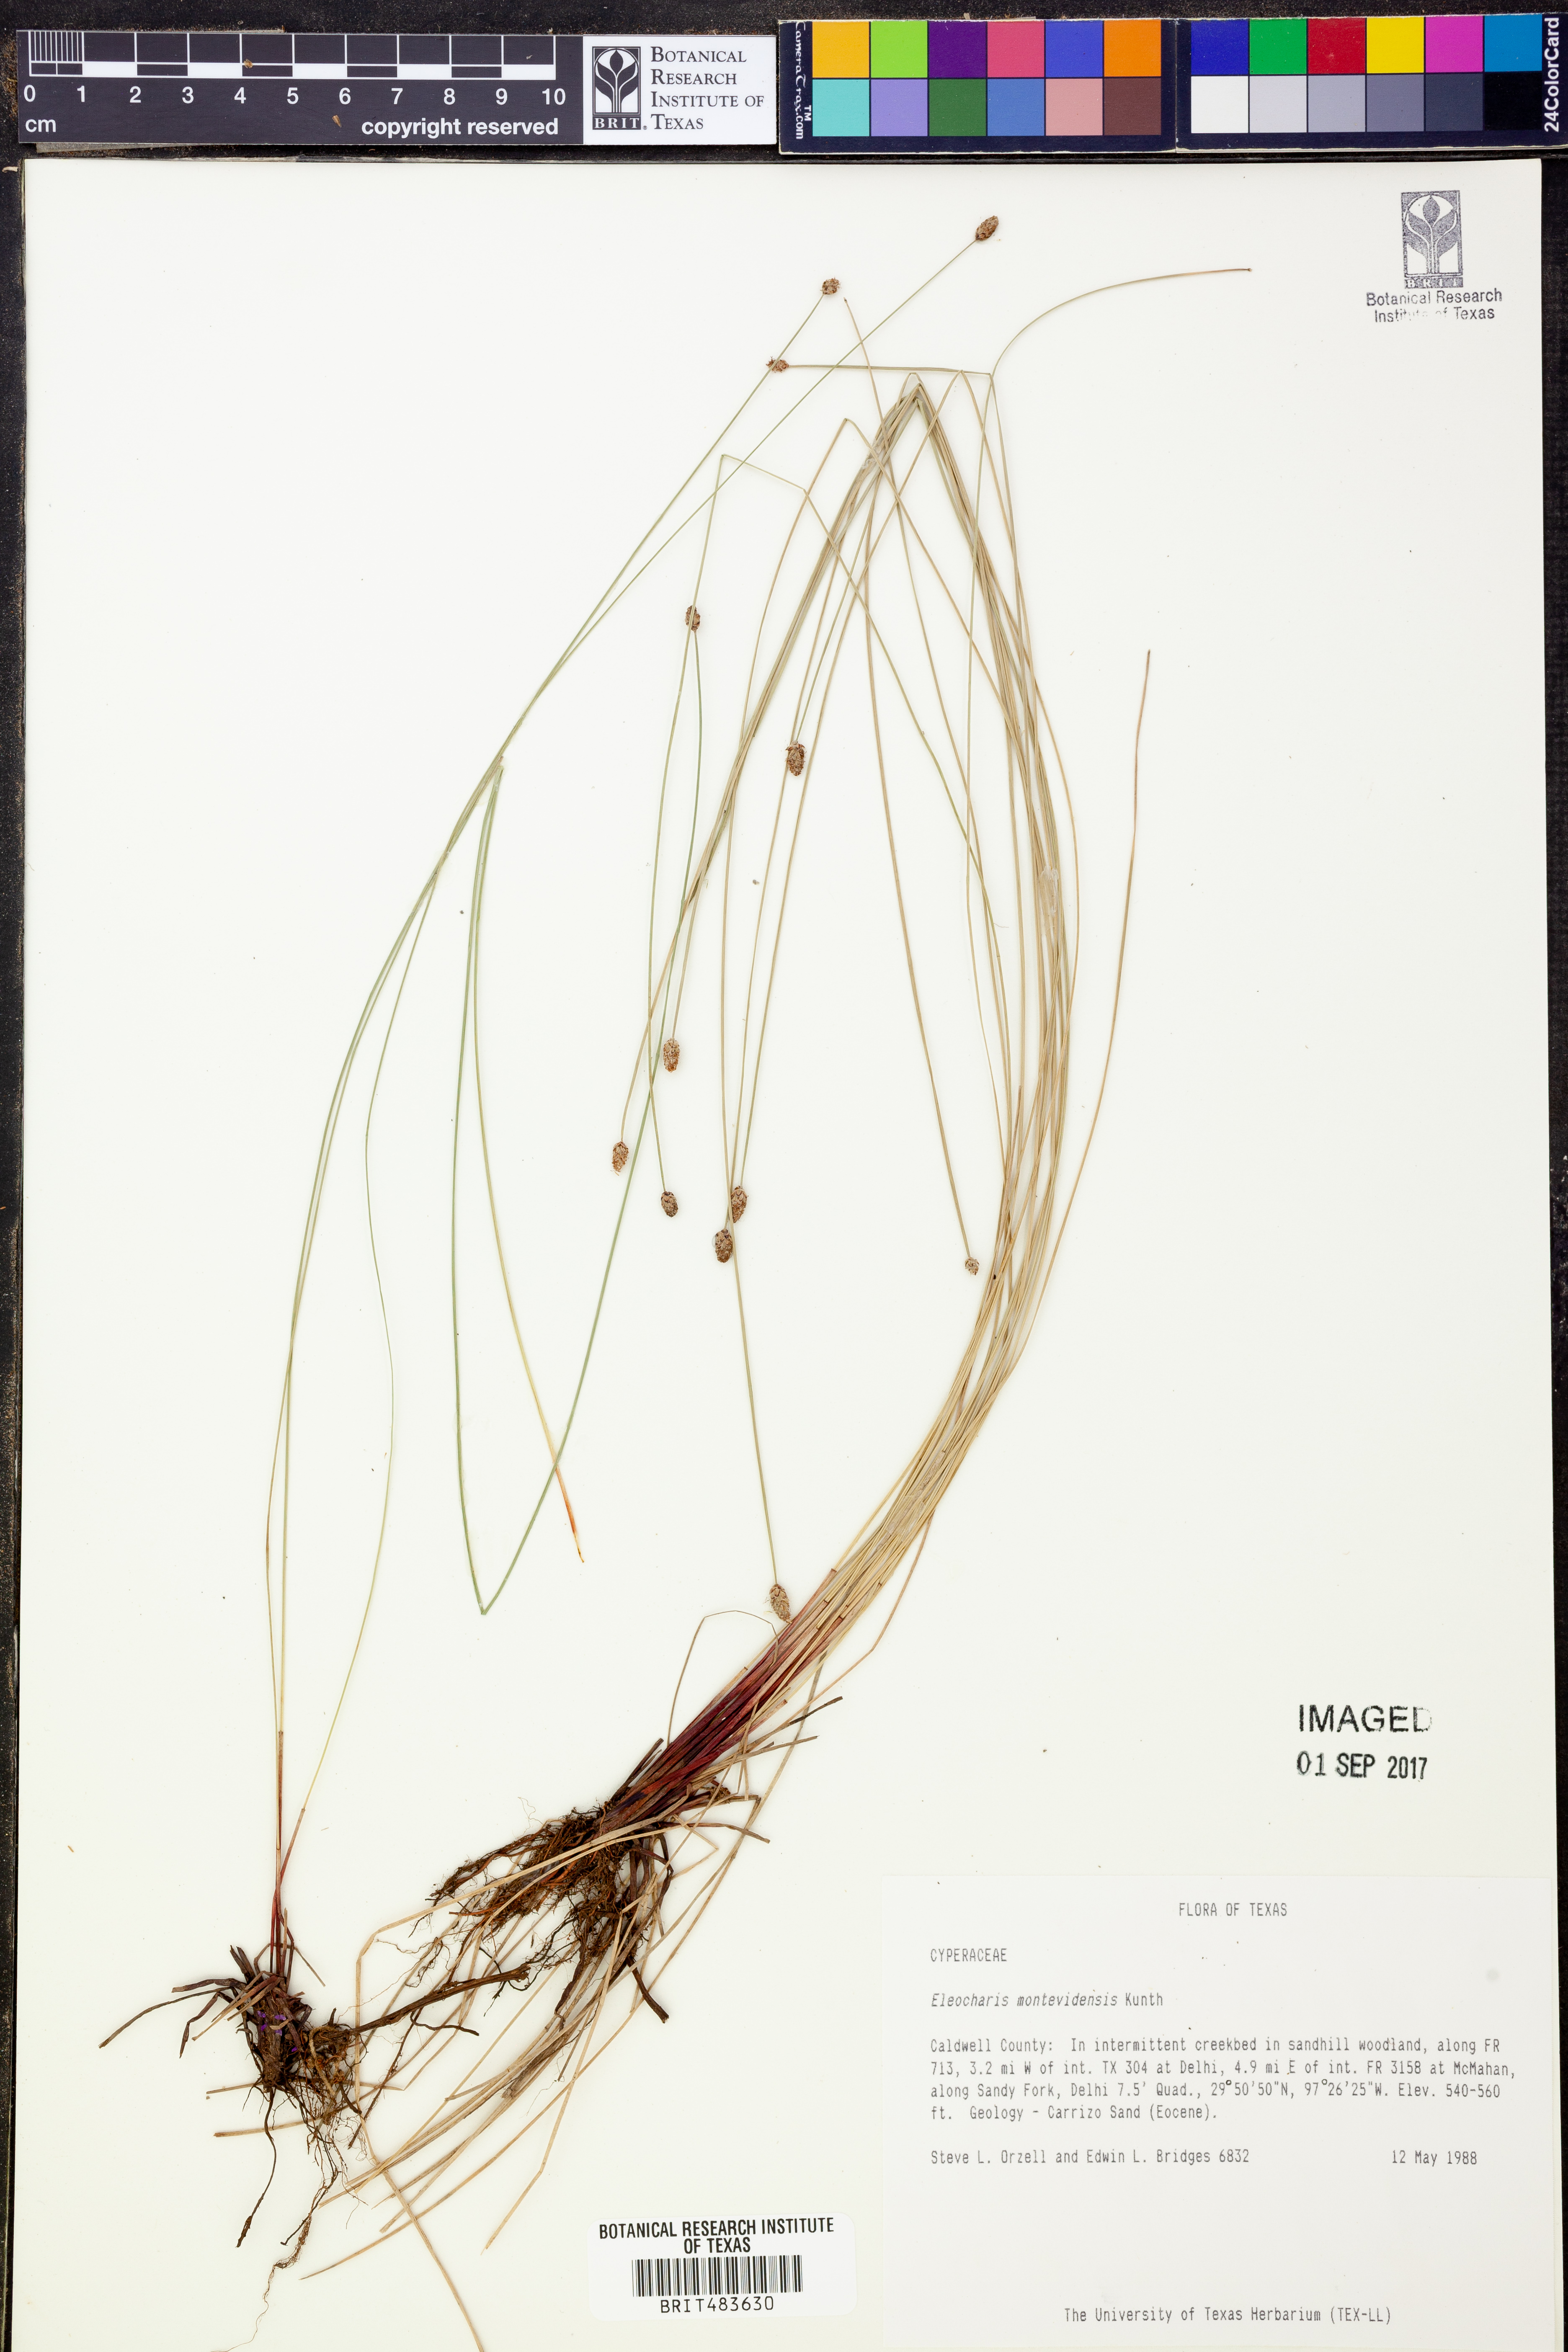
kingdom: Plantae
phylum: Tracheophyta
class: Liliopsida
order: Poales
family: Cyperaceae
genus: Eleocharis
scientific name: Eleocharis montevidensis
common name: Sand spike-rush
